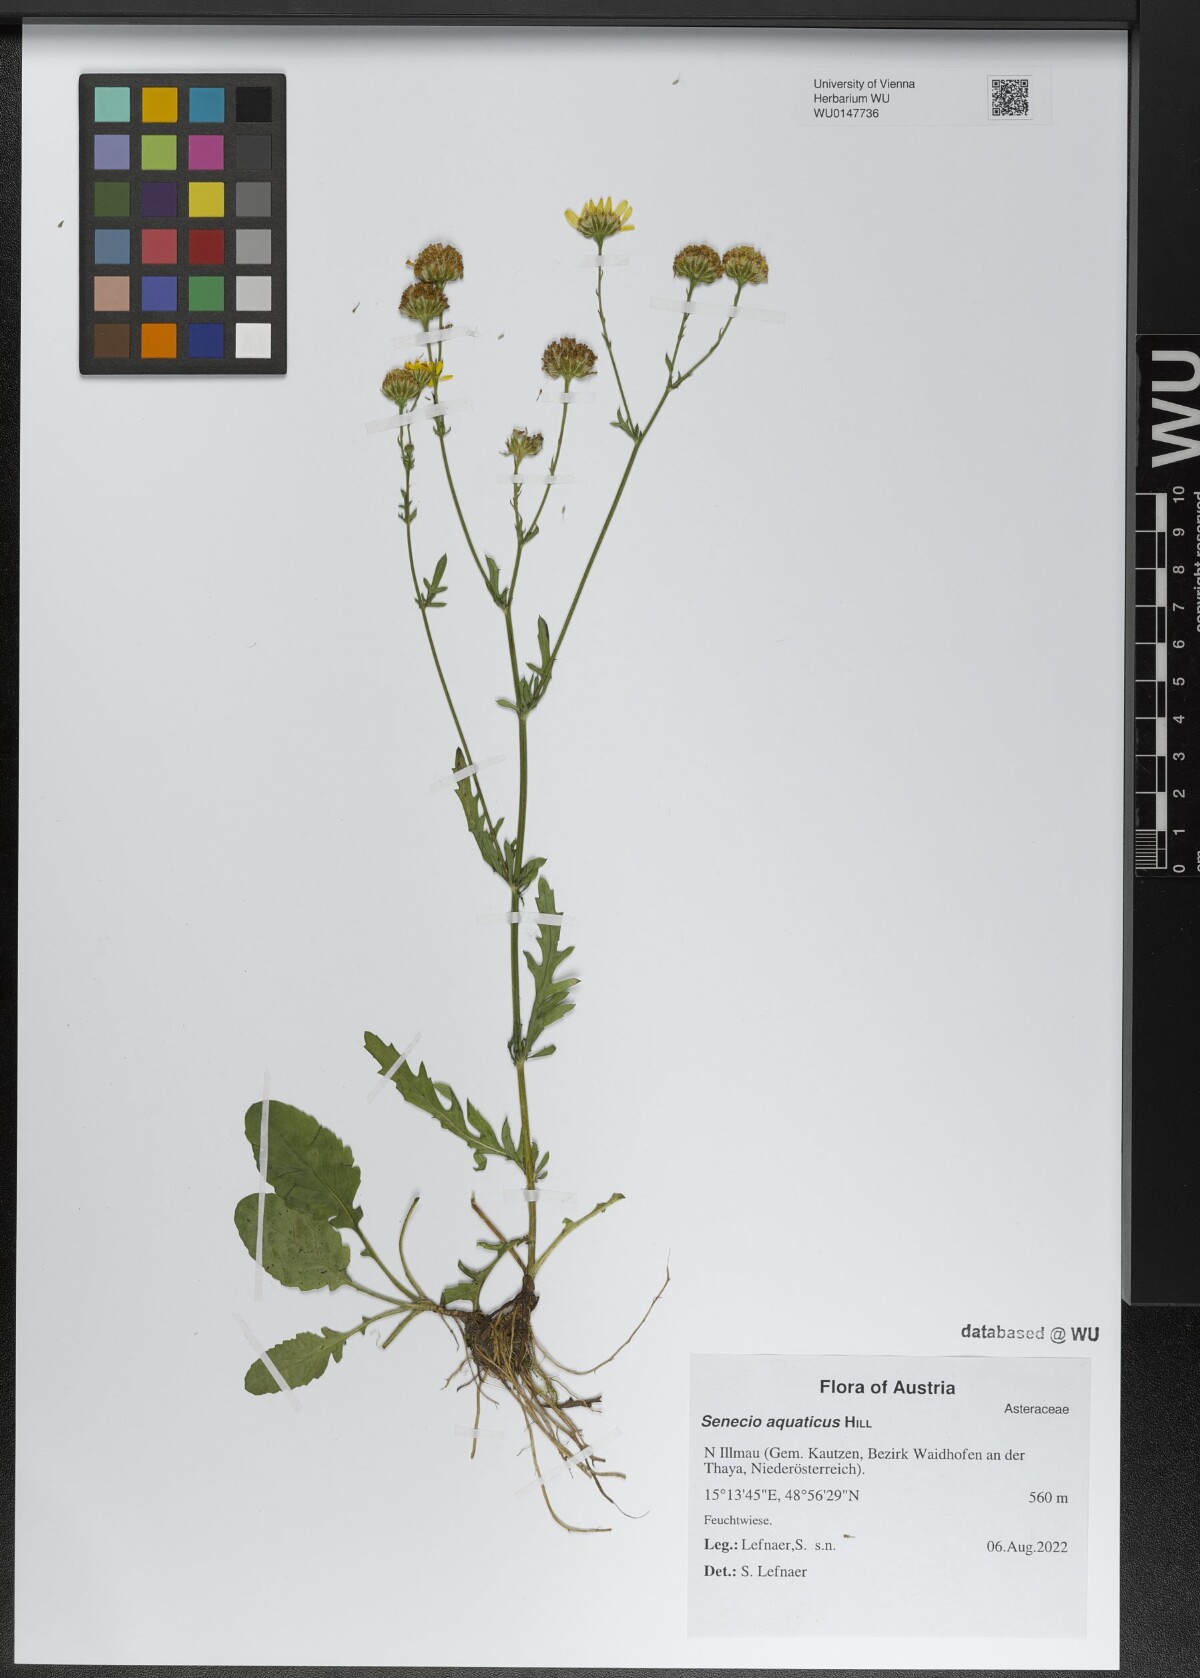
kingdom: Plantae
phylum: Tracheophyta
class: Magnoliopsida
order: Asterales
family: Asteraceae
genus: Jacobaea
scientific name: Jacobaea aquatica
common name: Water ragwort
